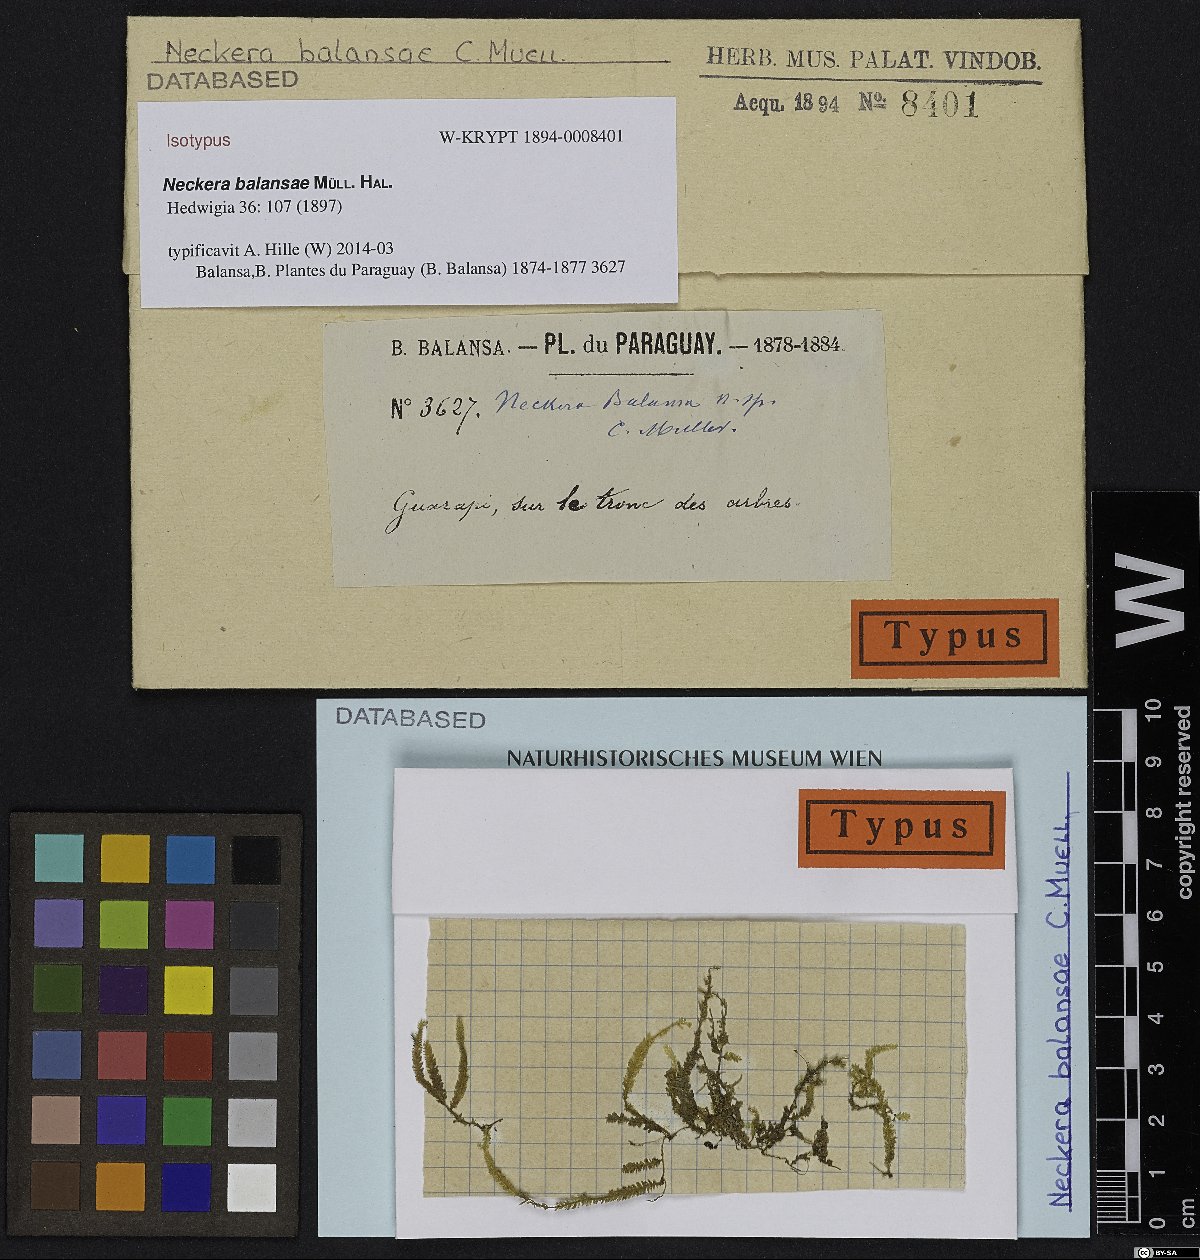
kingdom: Plantae
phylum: Bryophyta
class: Bryopsida
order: Hypnales
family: Neckeraceae
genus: Neckeropsis
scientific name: Neckeropsis disticha
